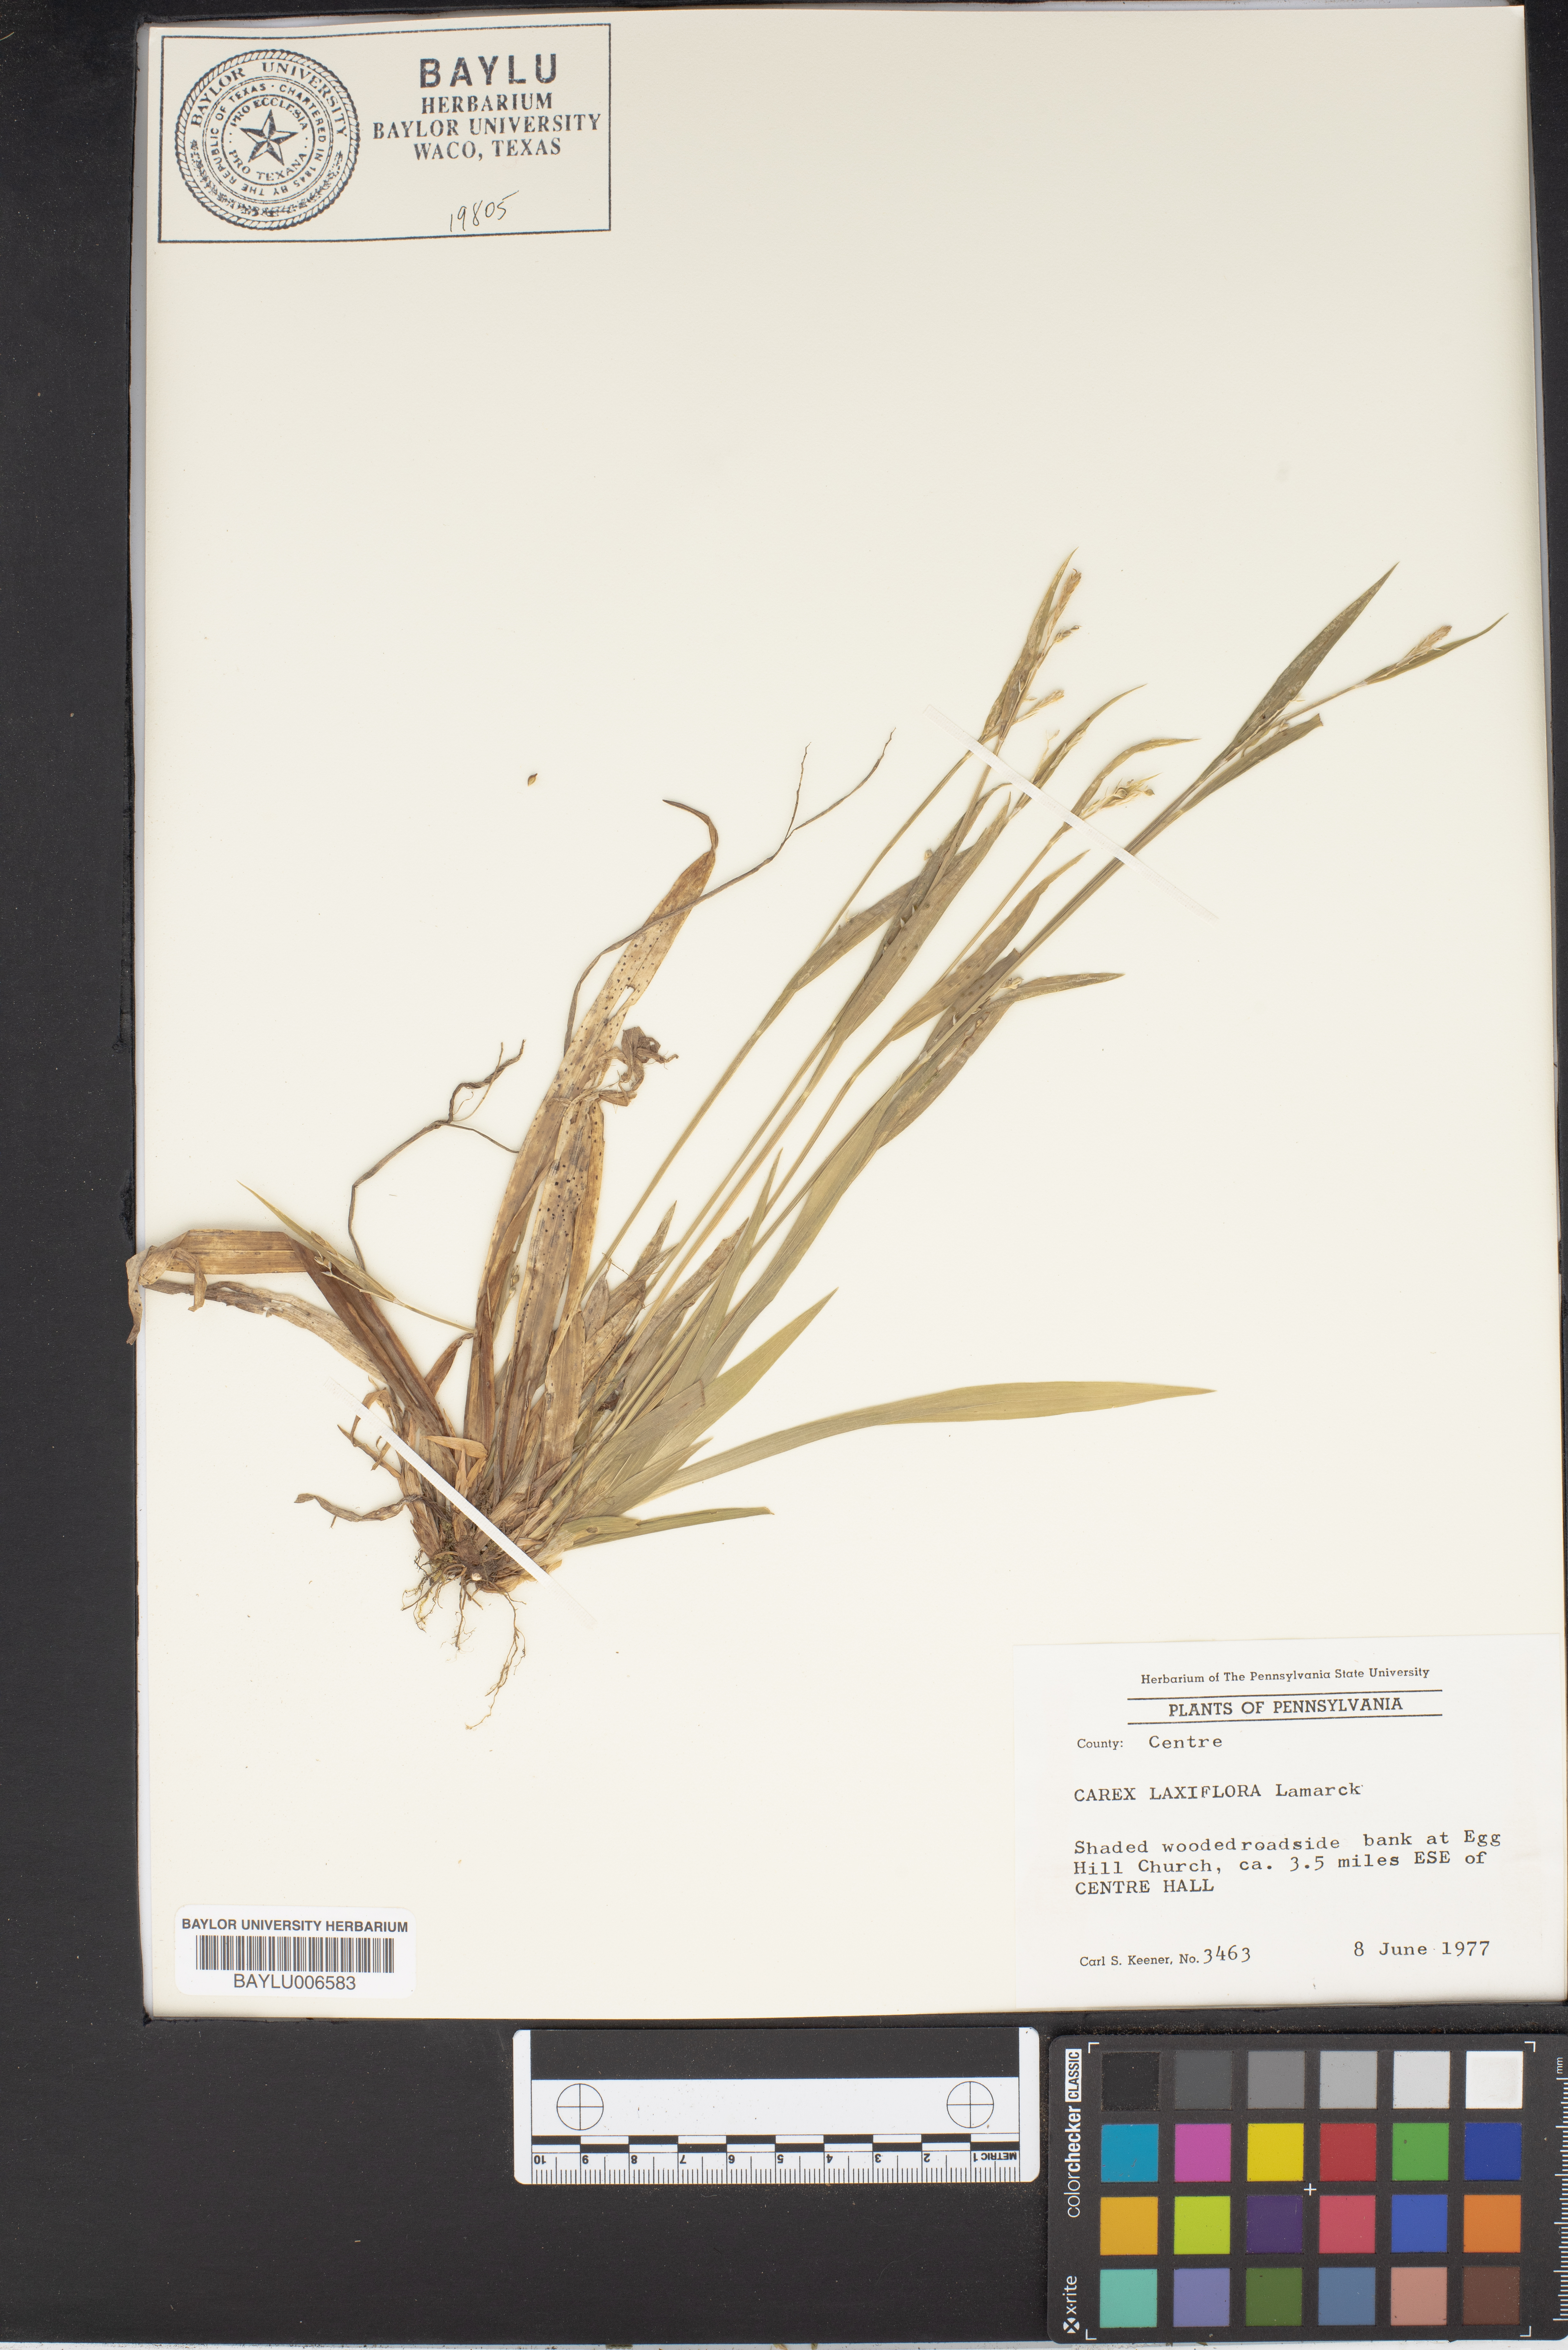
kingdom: Plantae
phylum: Tracheophyta
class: Liliopsida
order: Poales
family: Cyperaceae
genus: Carex
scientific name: Carex laxiflora
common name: Beech wood sedge
